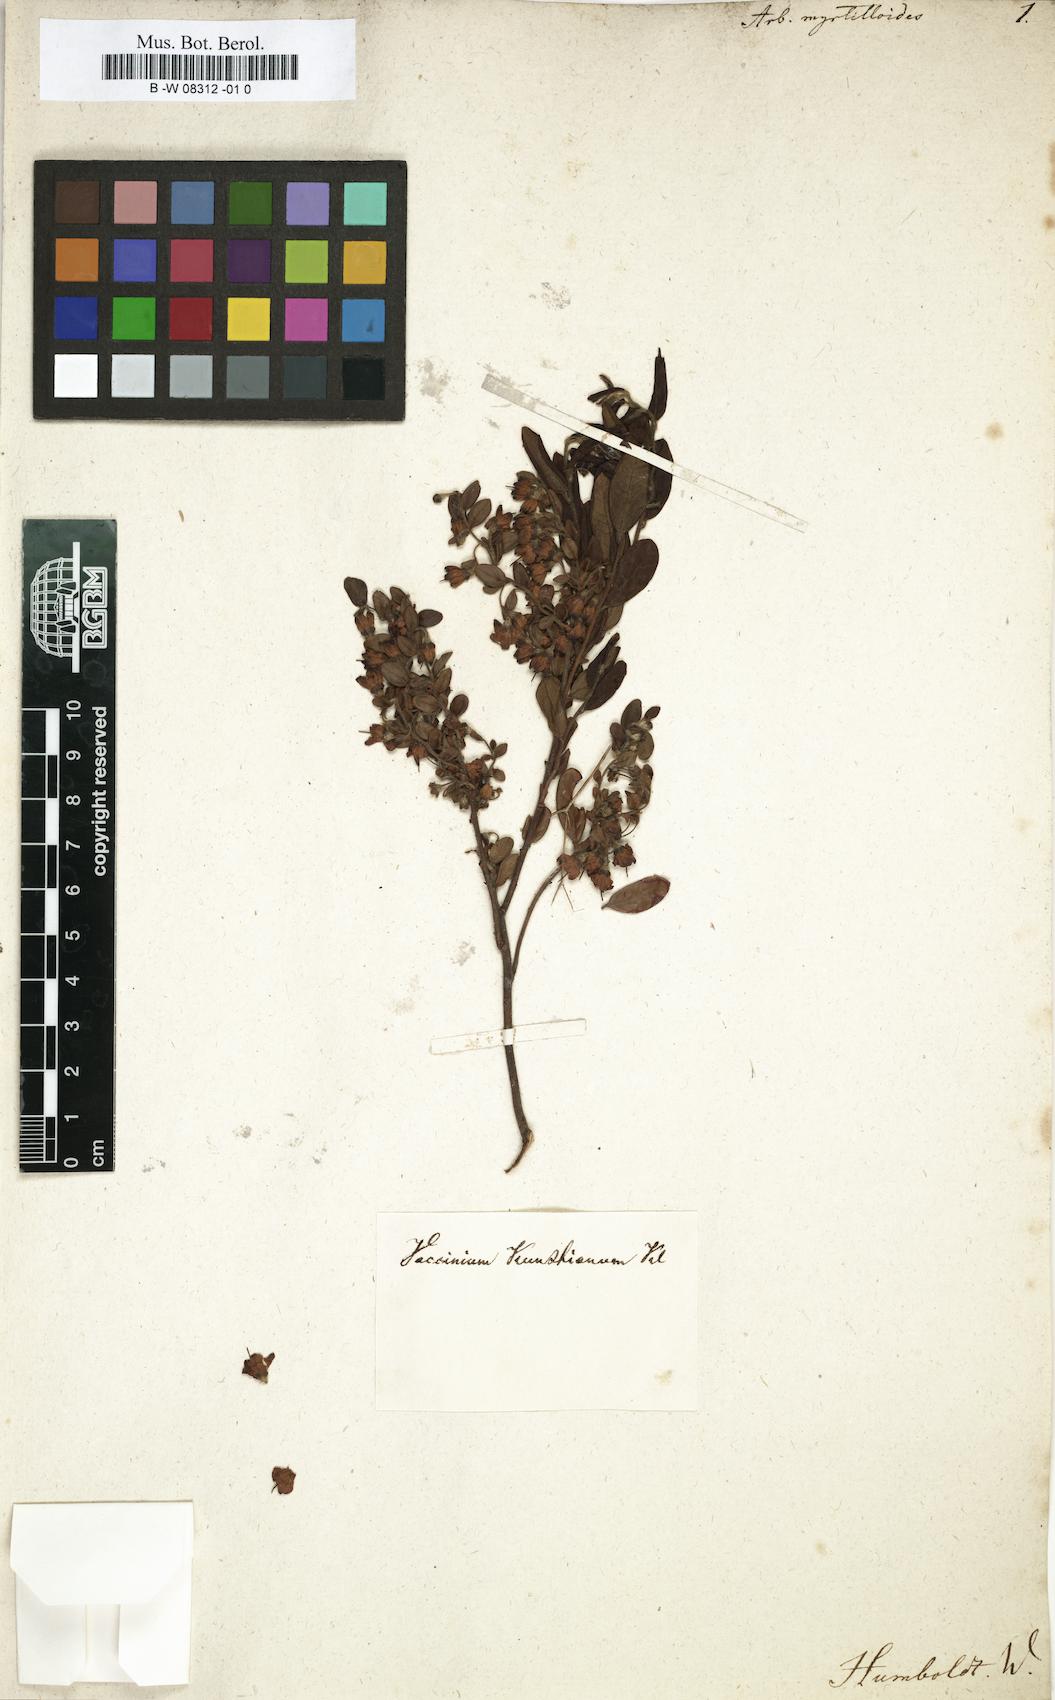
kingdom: Plantae
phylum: Tracheophyta
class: Magnoliopsida
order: Ericales
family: Ericaceae
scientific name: Ericaceae
